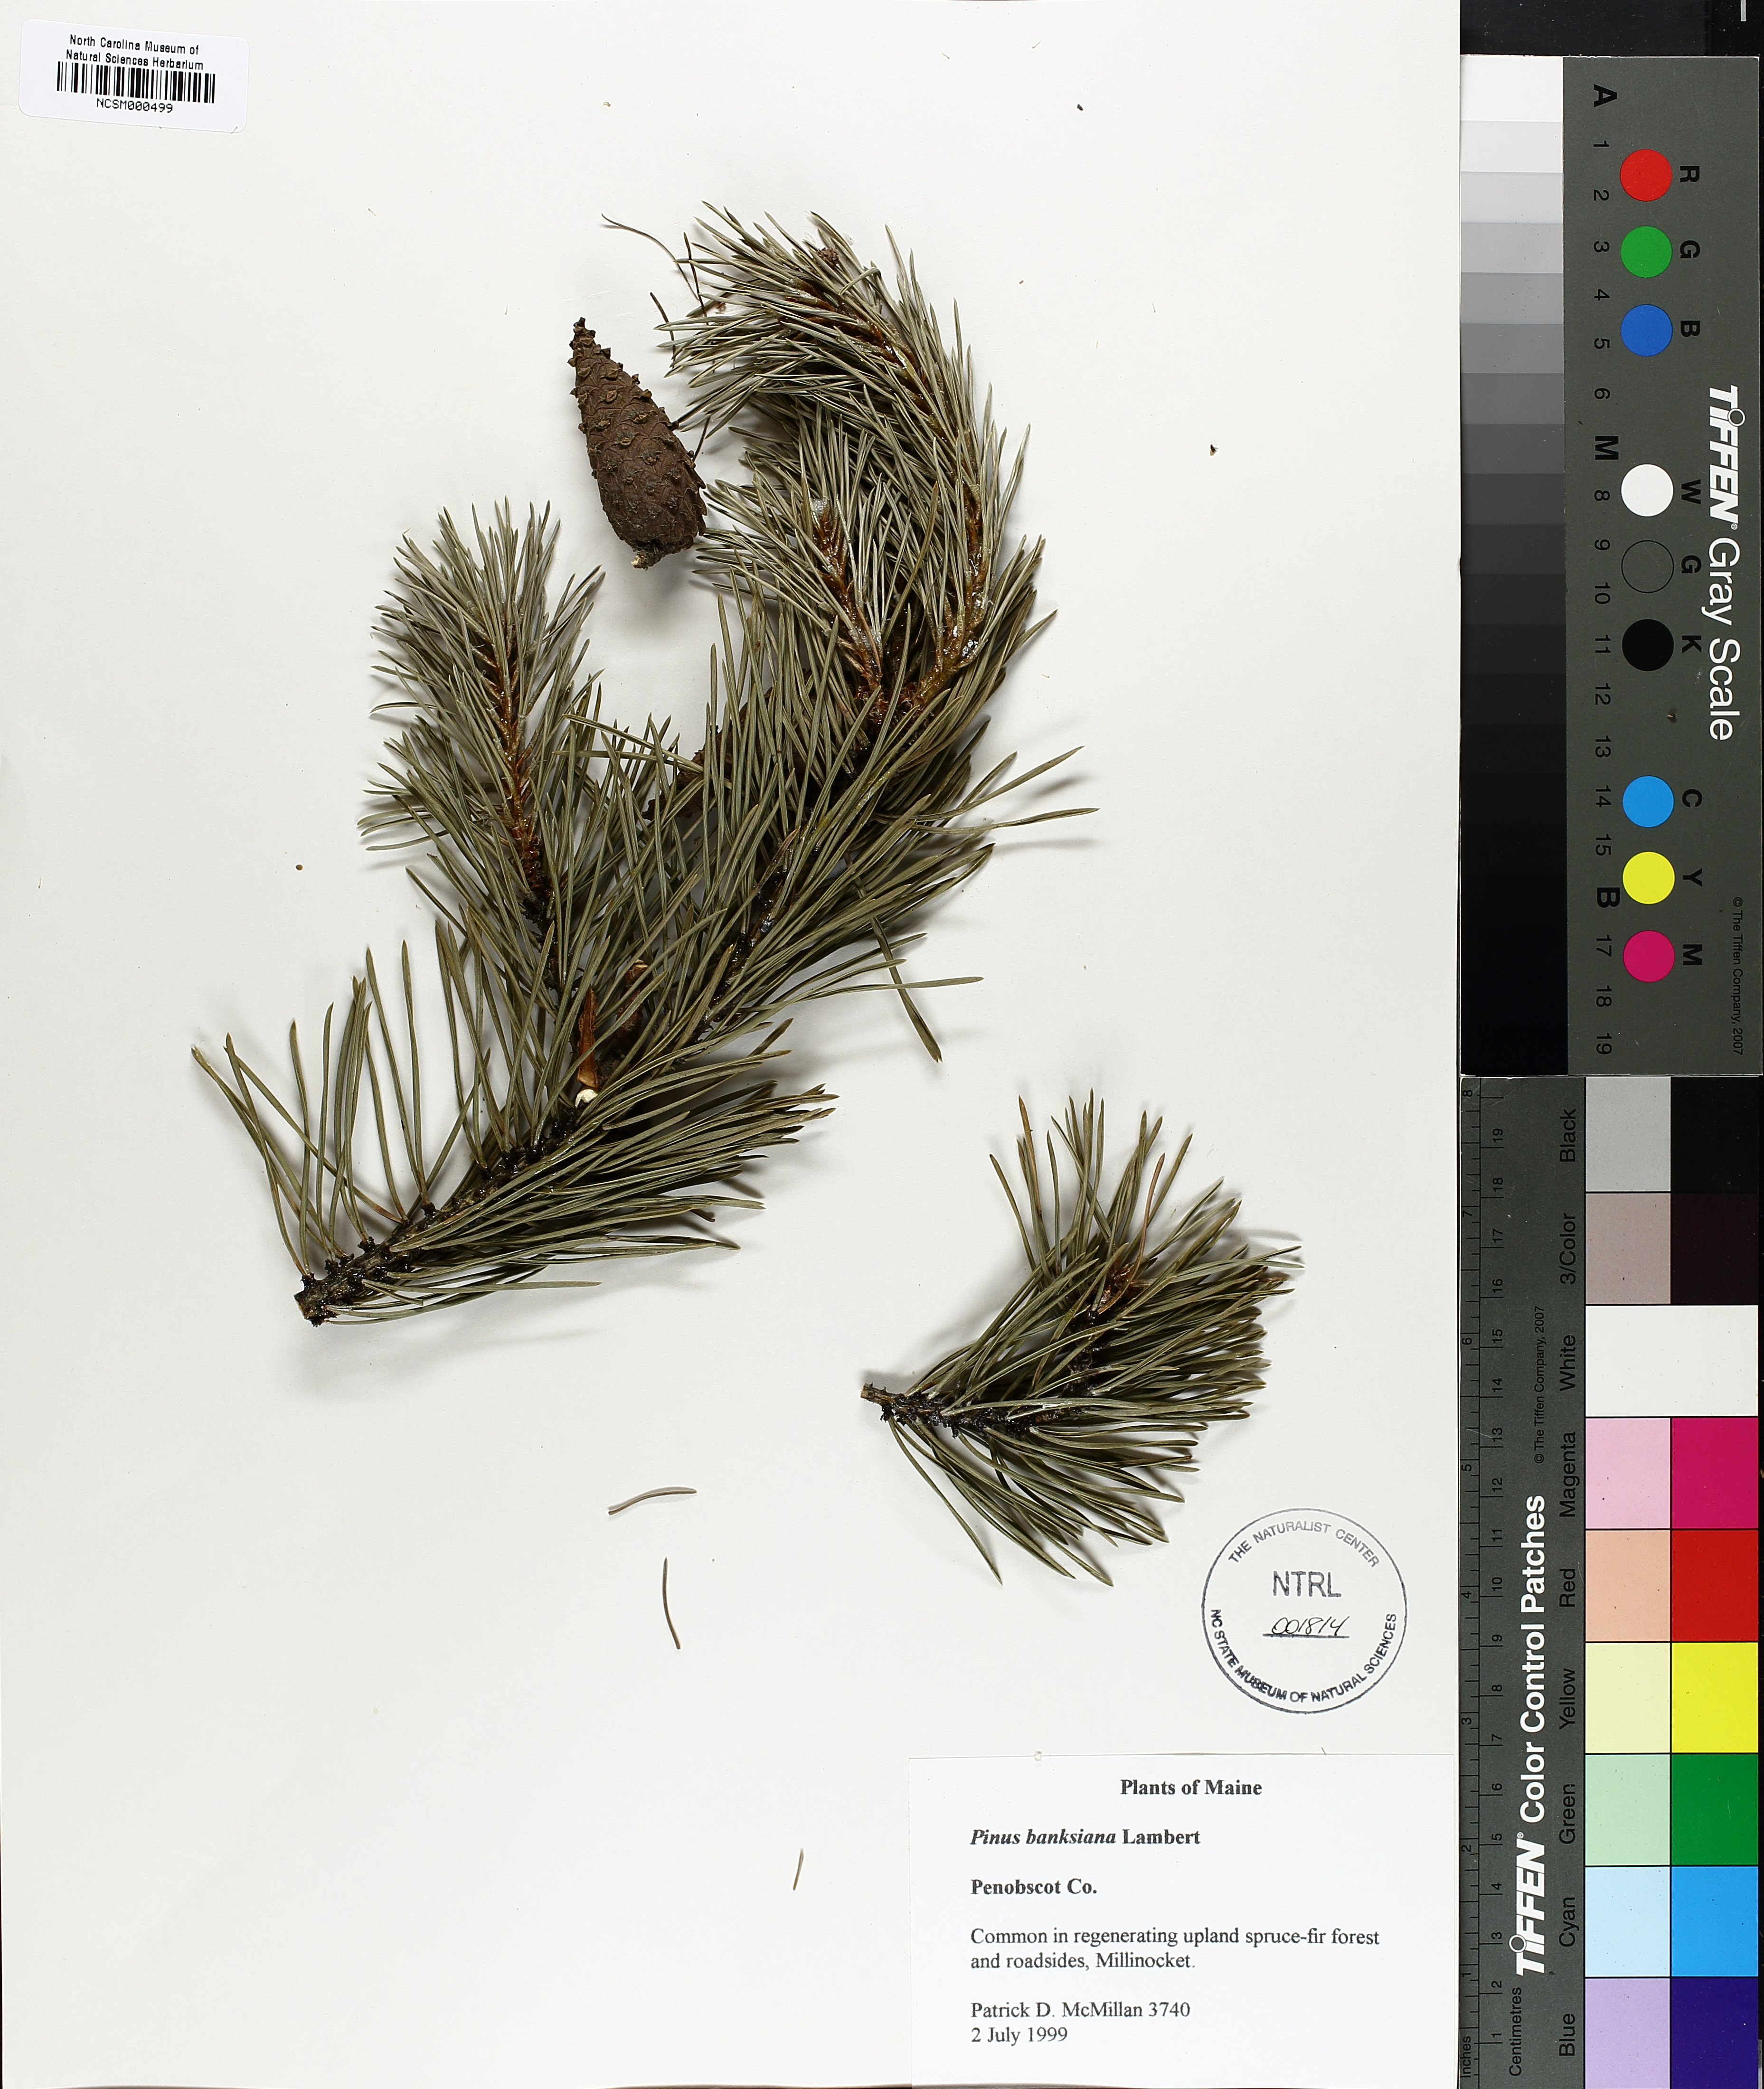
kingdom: Plantae
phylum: Tracheophyta
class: Pinopsida
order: Pinales
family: Pinaceae
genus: Pinus
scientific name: Pinus banksiana
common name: Jack pine
